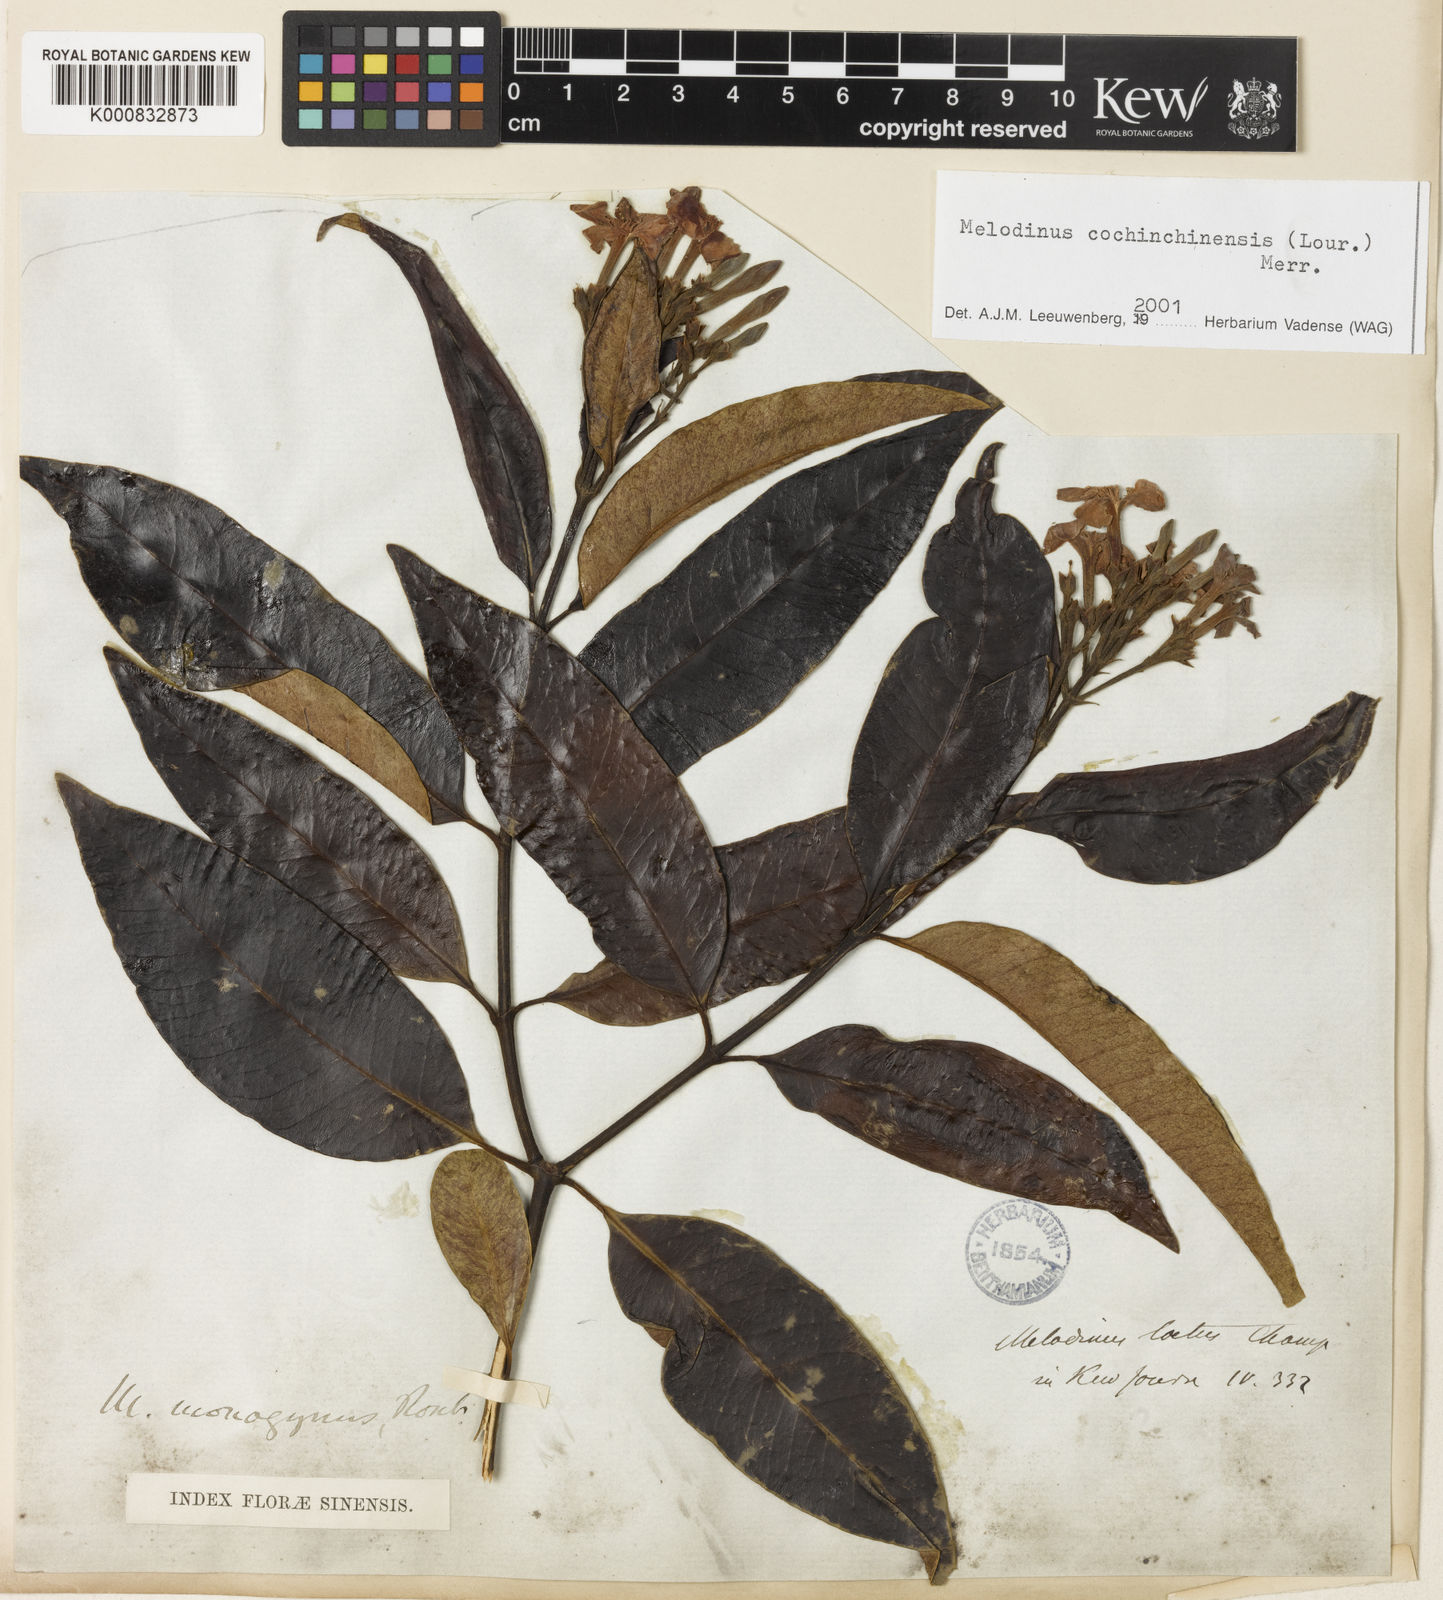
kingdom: Plantae
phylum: Tracheophyta
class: Magnoliopsida
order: Gentianales
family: Apocynaceae
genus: Melodinus
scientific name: Melodinus cochinchinensis
